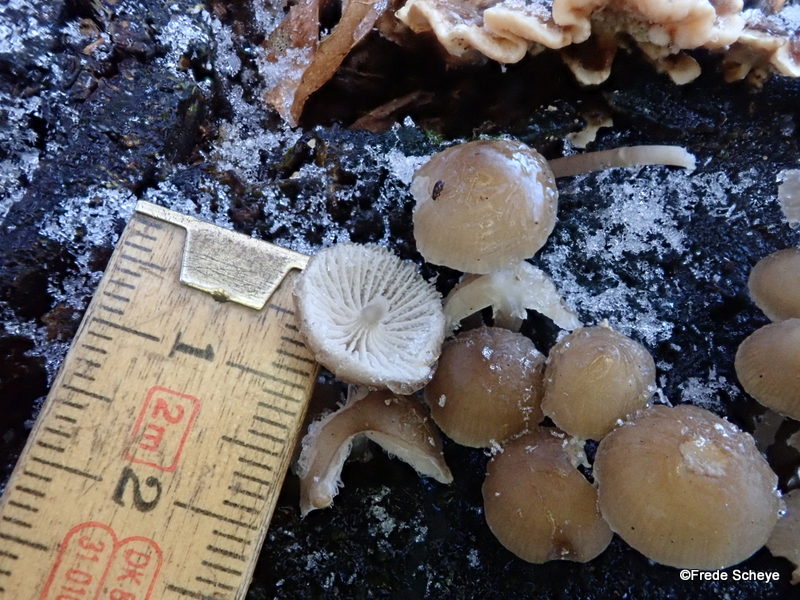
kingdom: Fungi
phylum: Basidiomycota
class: Agaricomycetes
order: Agaricales
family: Mycenaceae
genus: Mycena
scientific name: Mycena tintinnabulum
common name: vinter-huesvamp
